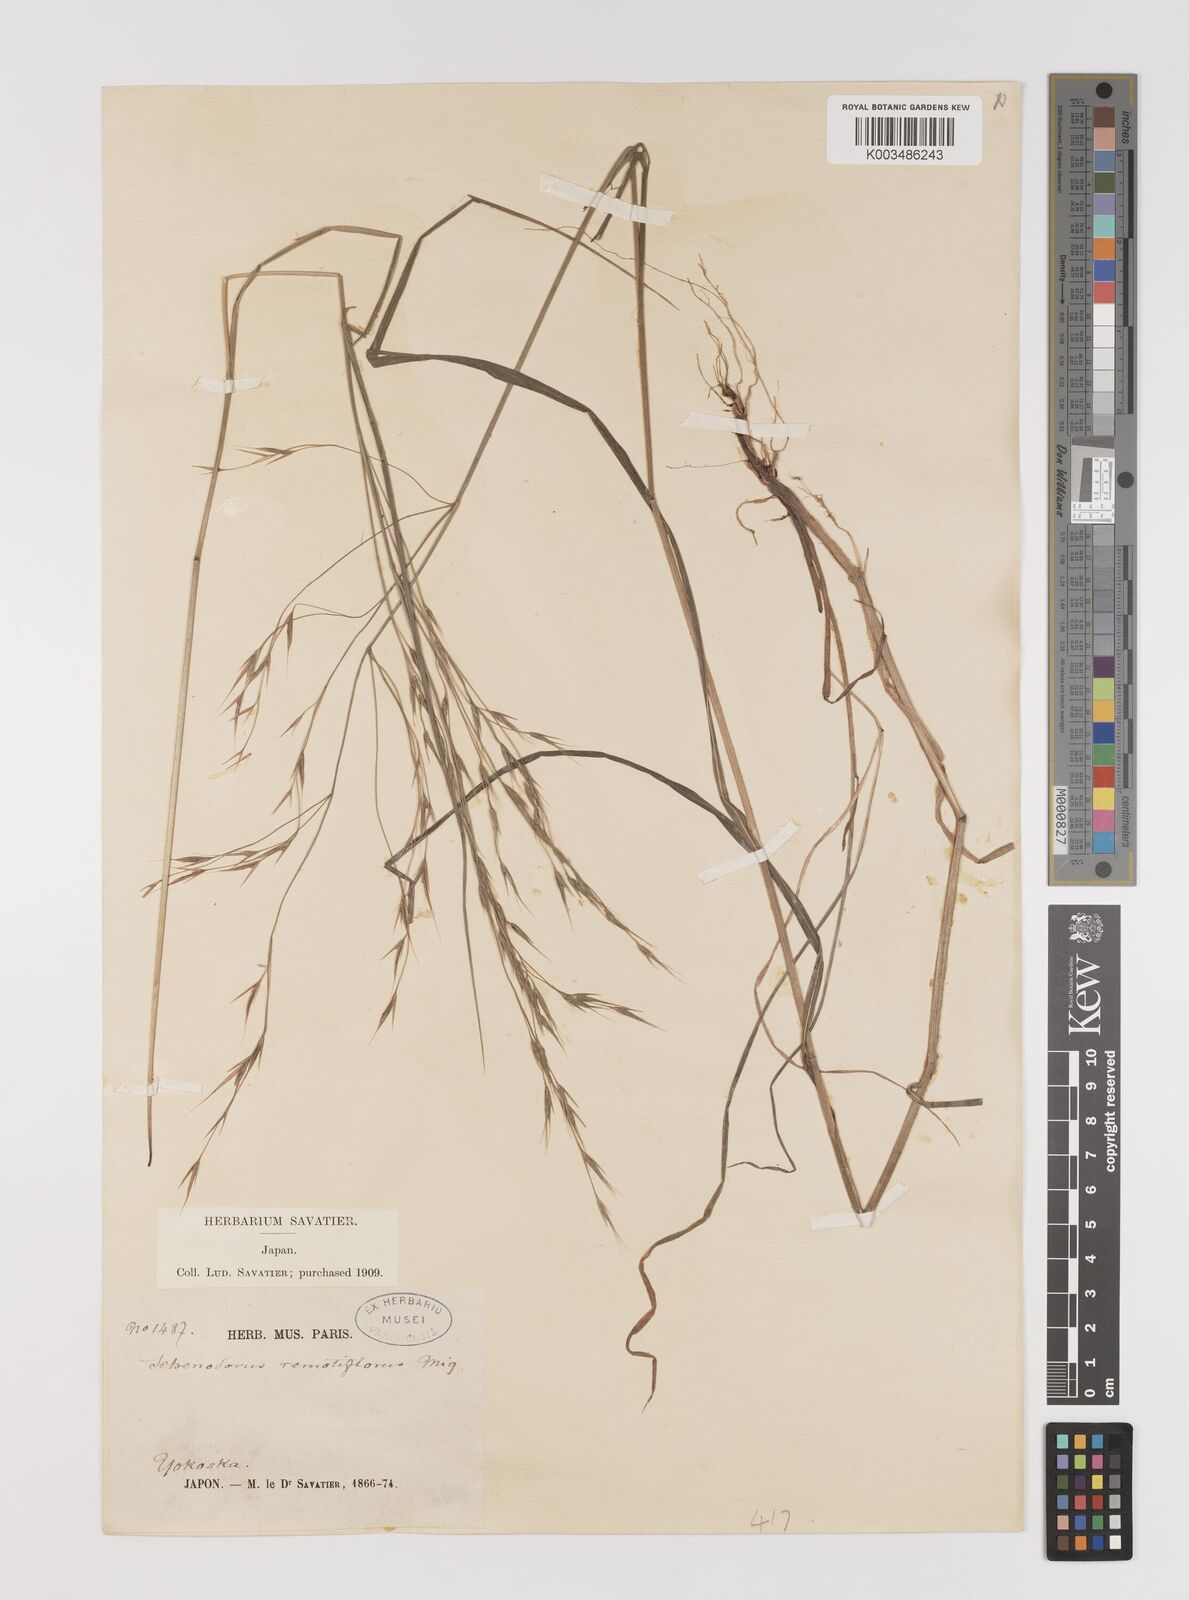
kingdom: Plantae
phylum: Tracheophyta
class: Liliopsida
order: Poales
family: Poaceae
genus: Bromus
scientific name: Bromus remotiflorus
